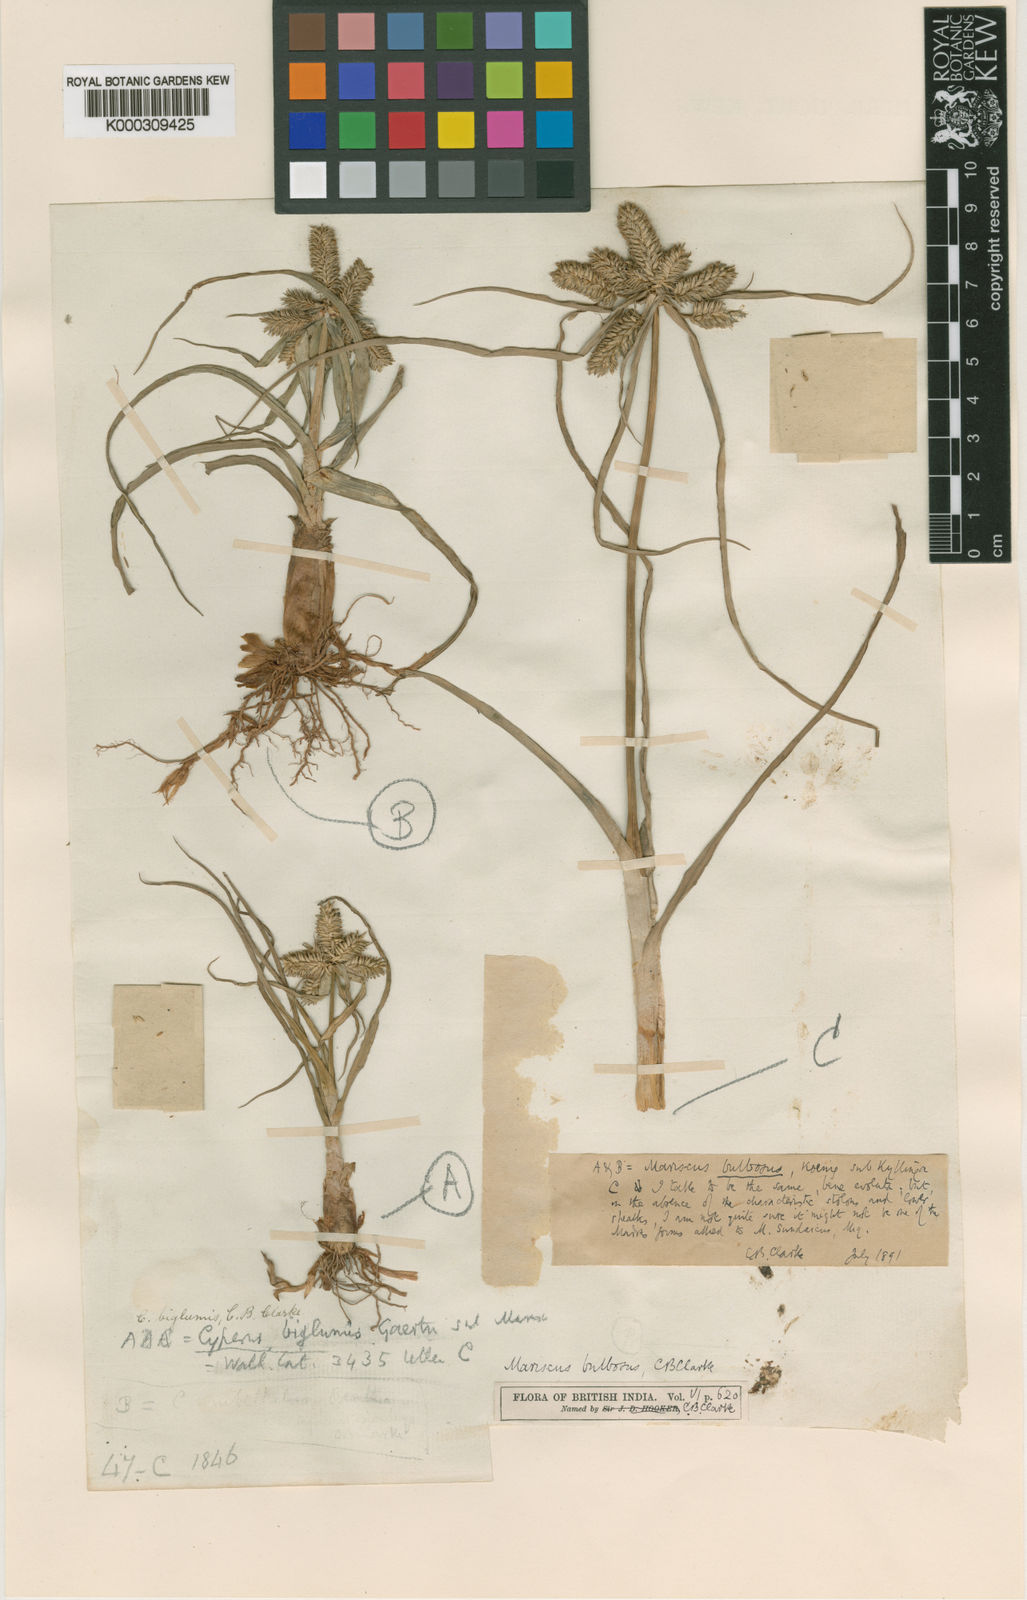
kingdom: Plantae
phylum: Tracheophyta
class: Liliopsida
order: Poales
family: Cyperaceae
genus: Cyperus
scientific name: Cyperus clarkei
